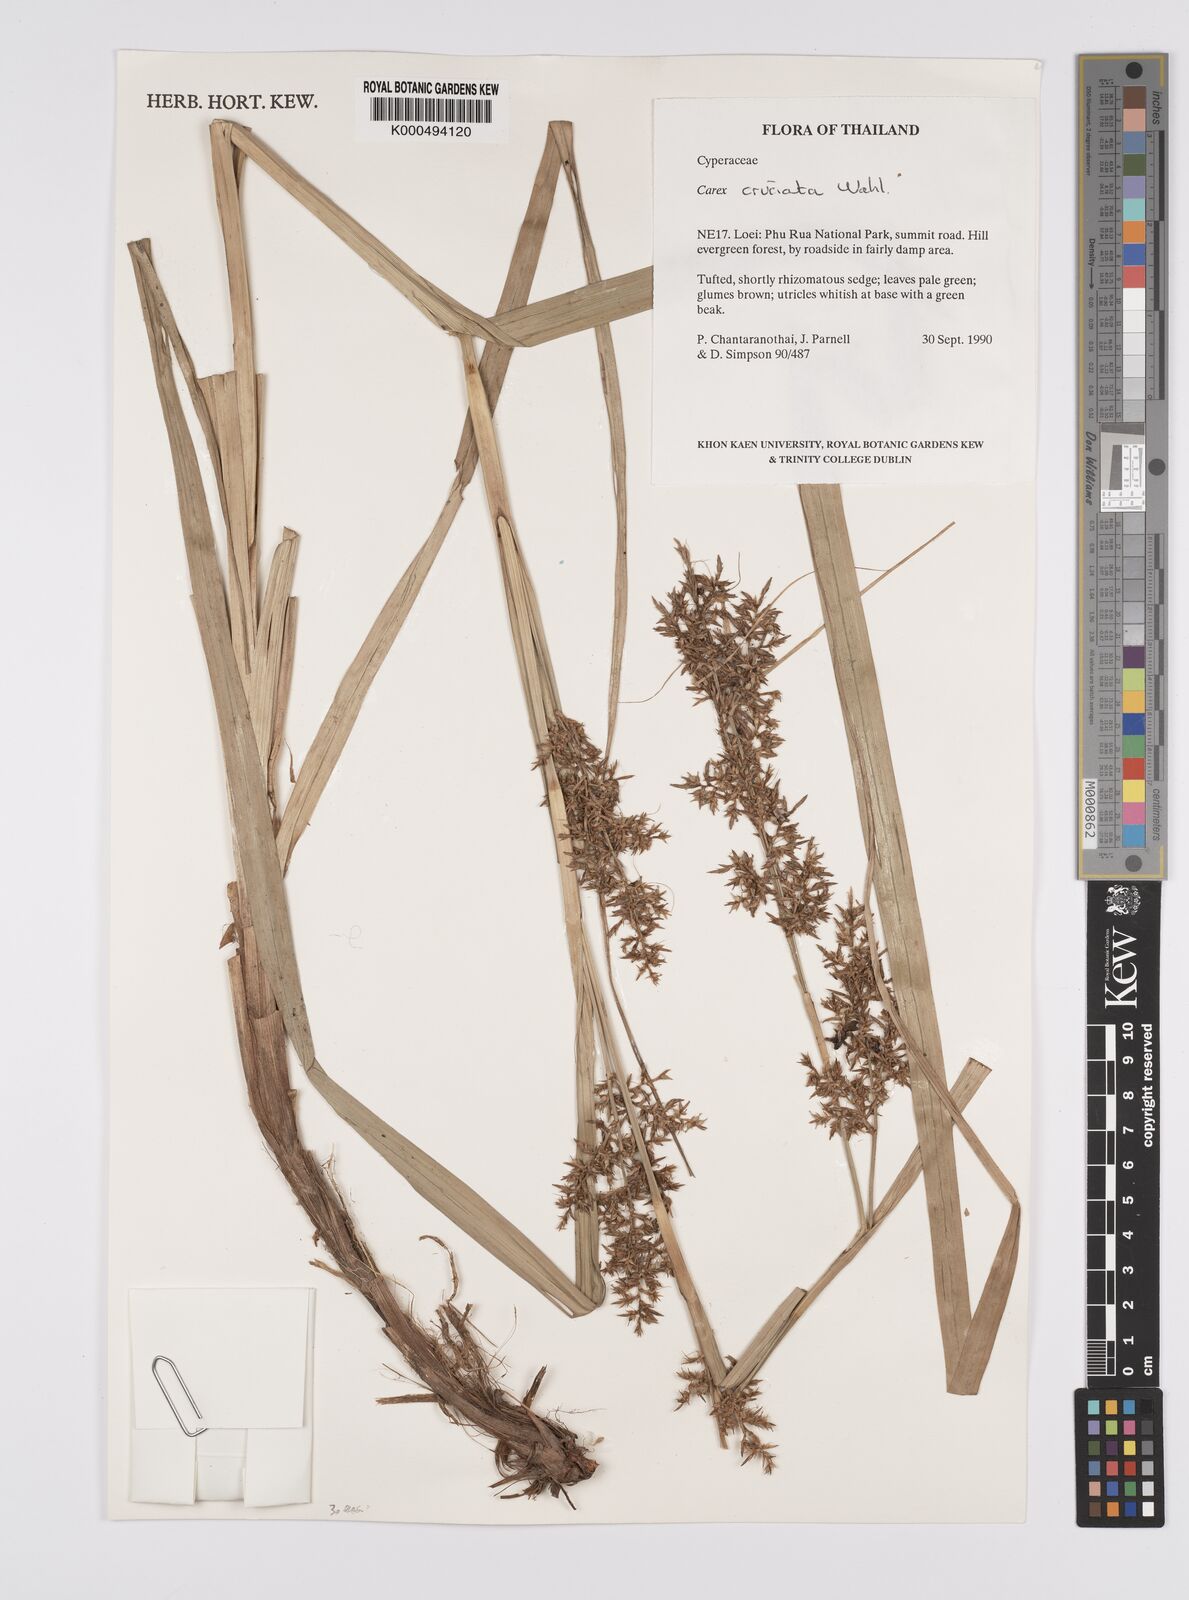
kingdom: Plantae
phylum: Tracheophyta
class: Liliopsida
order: Poales
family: Cyperaceae
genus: Carex
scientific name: Carex cruciata
